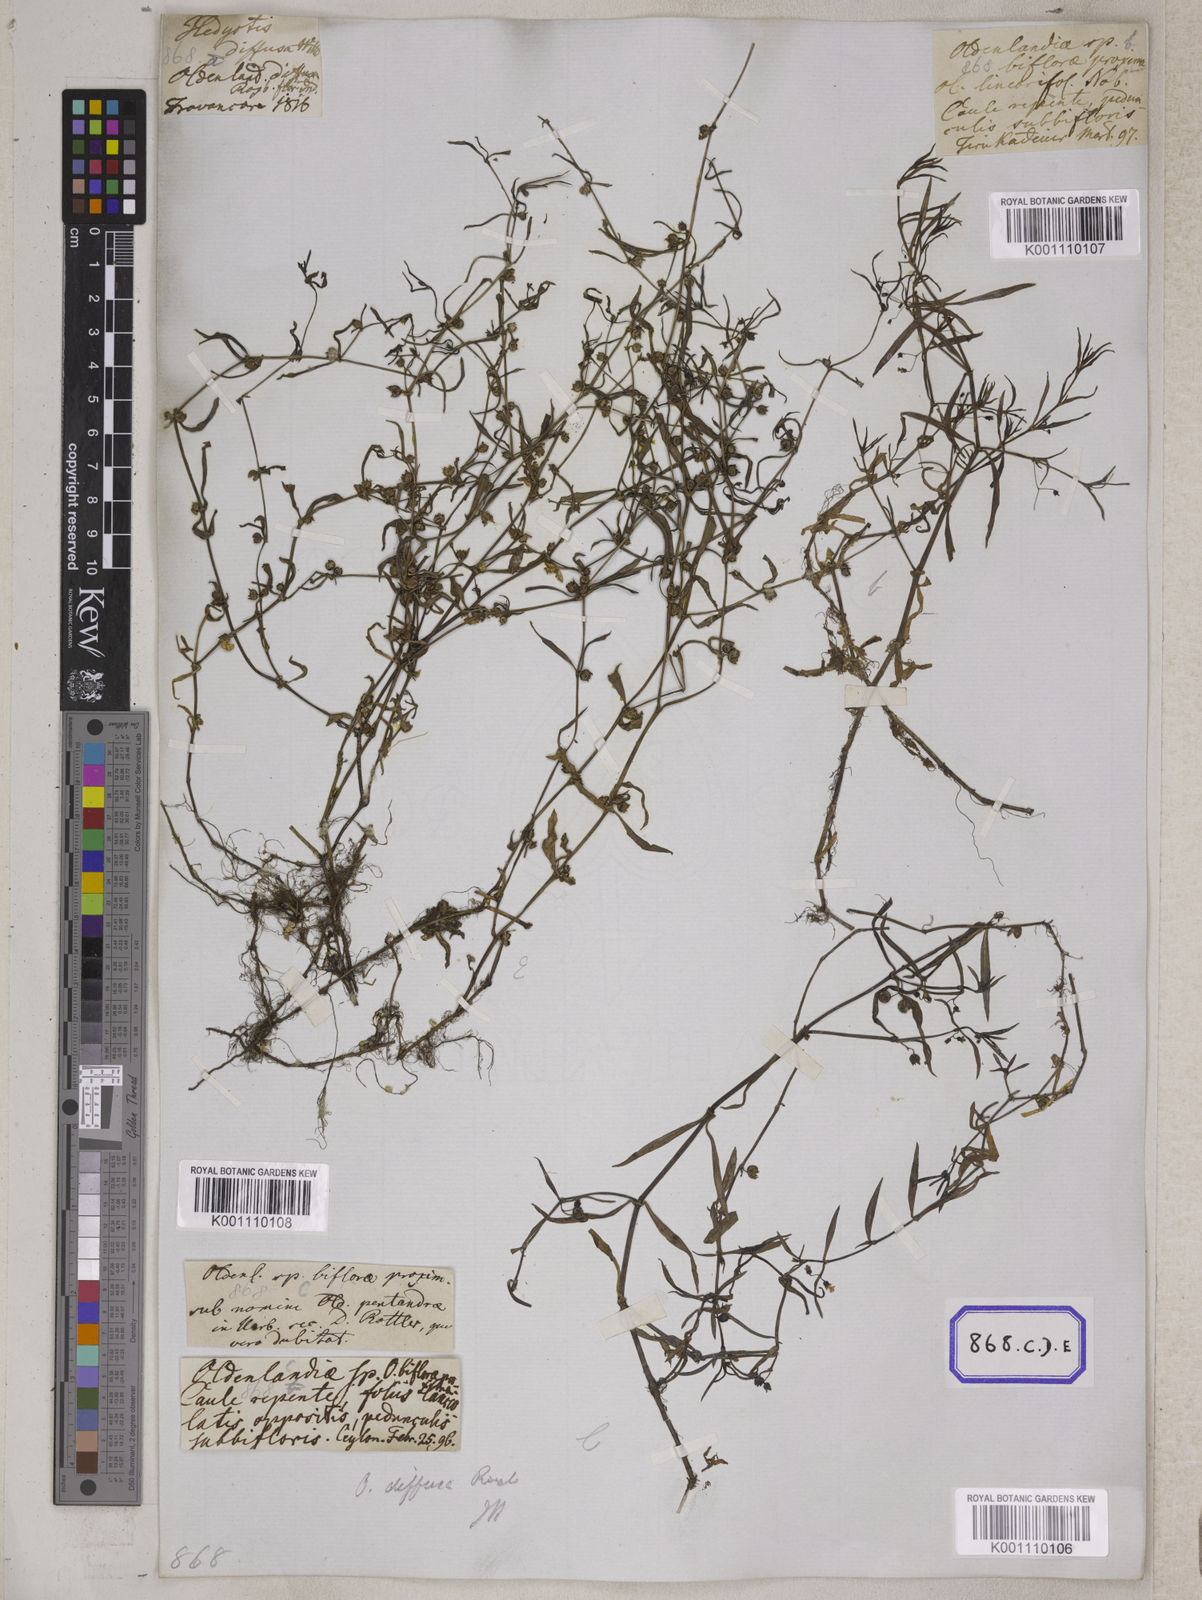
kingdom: Plantae
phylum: Tracheophyta
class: Magnoliopsida
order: Gentianales
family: Rubiaceae
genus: Hedyotis
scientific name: Hedyotis
